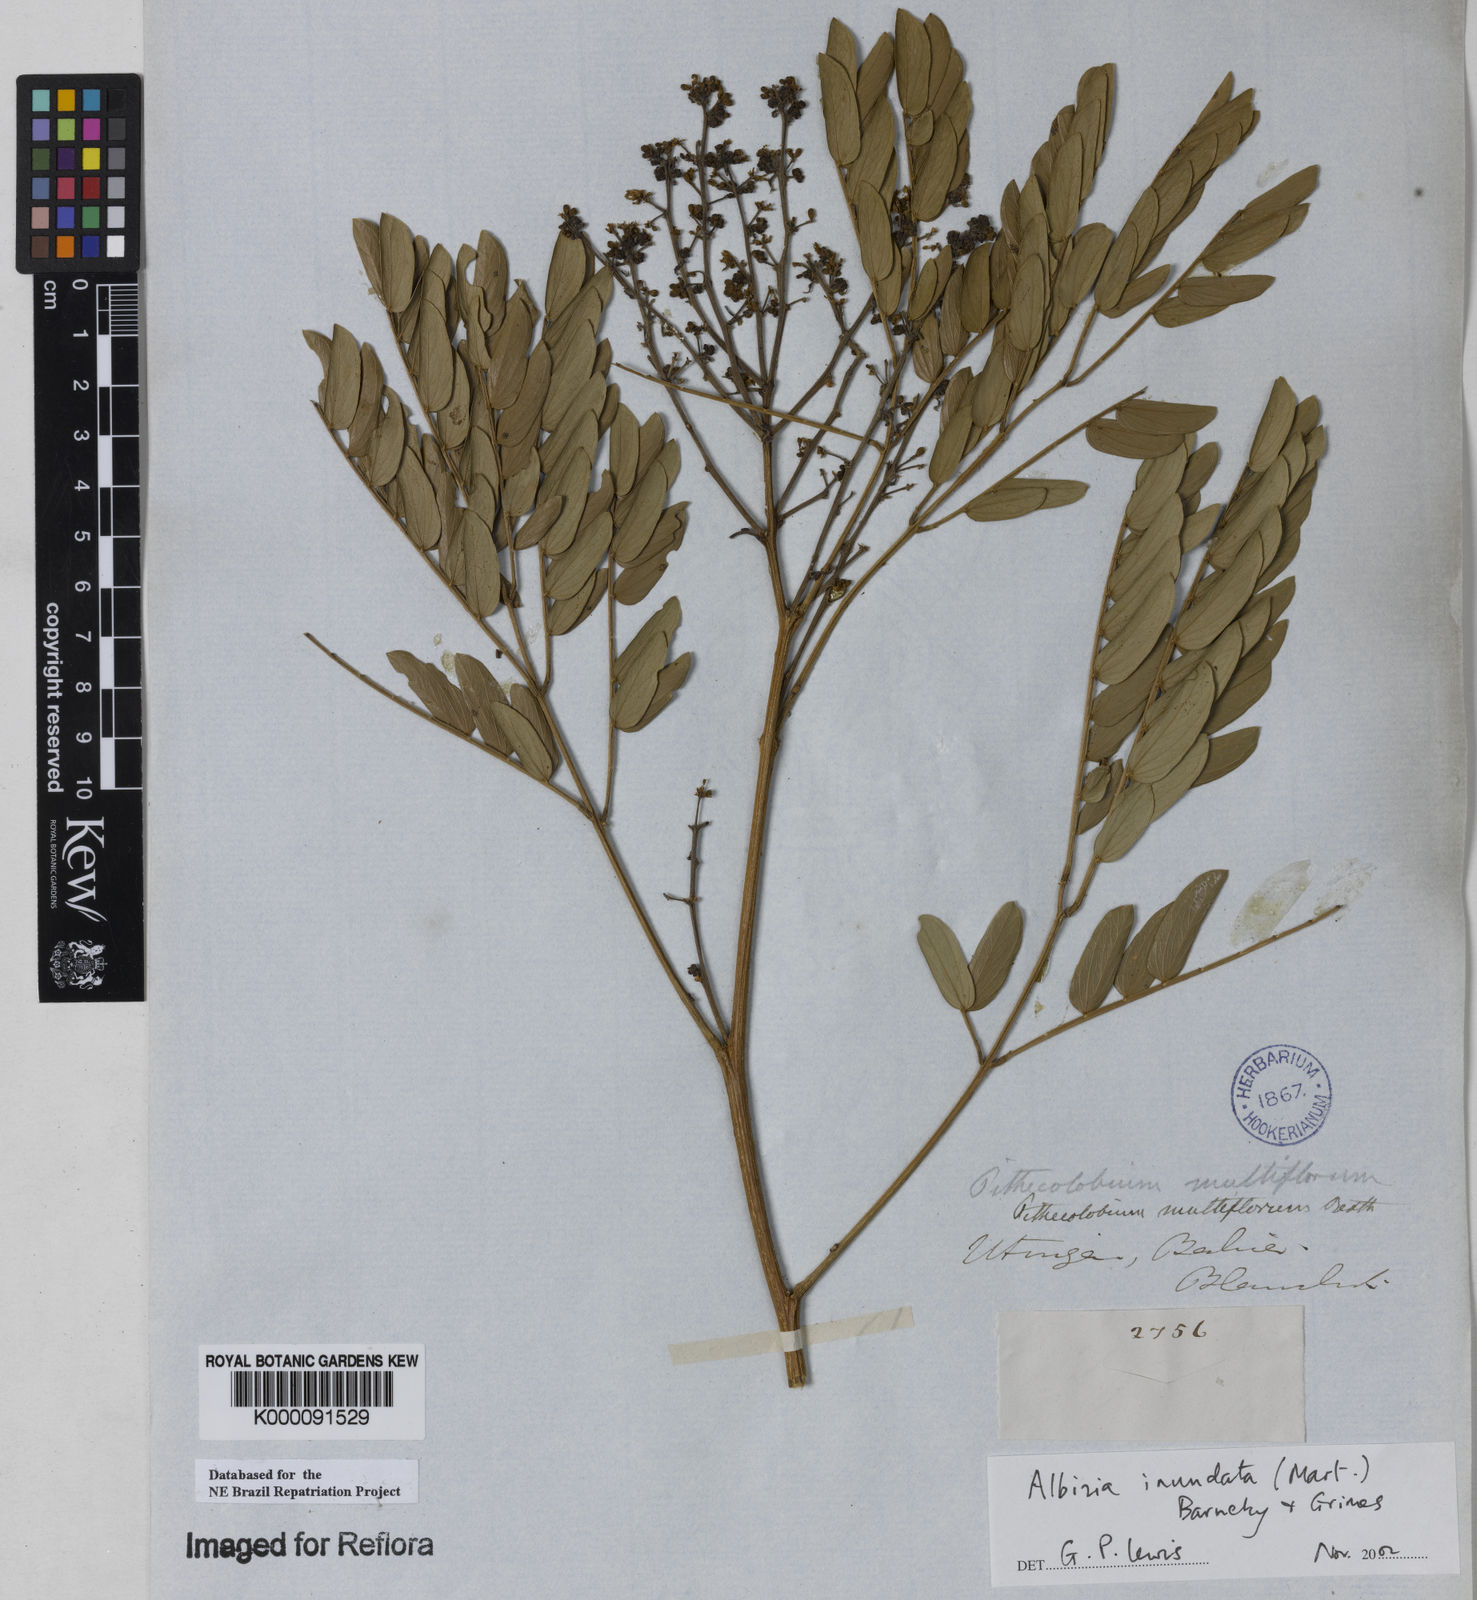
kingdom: Plantae
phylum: Tracheophyta
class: Magnoliopsida
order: Fabales
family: Fabaceae
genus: Albizia
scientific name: Albizia inundata
